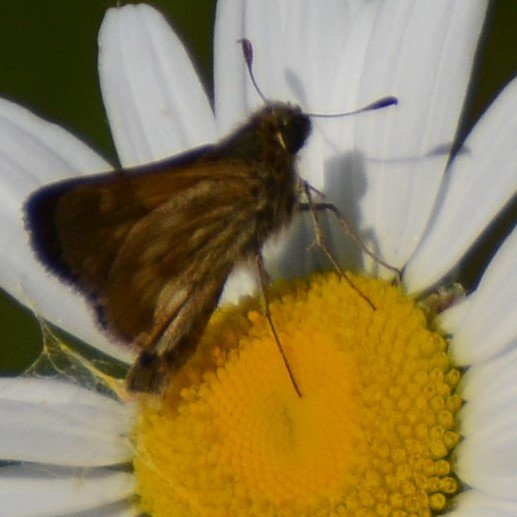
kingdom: Animalia
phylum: Arthropoda
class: Insecta
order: Lepidoptera
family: Hesperiidae
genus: Polites
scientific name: Polites
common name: Long Dash Skipper
